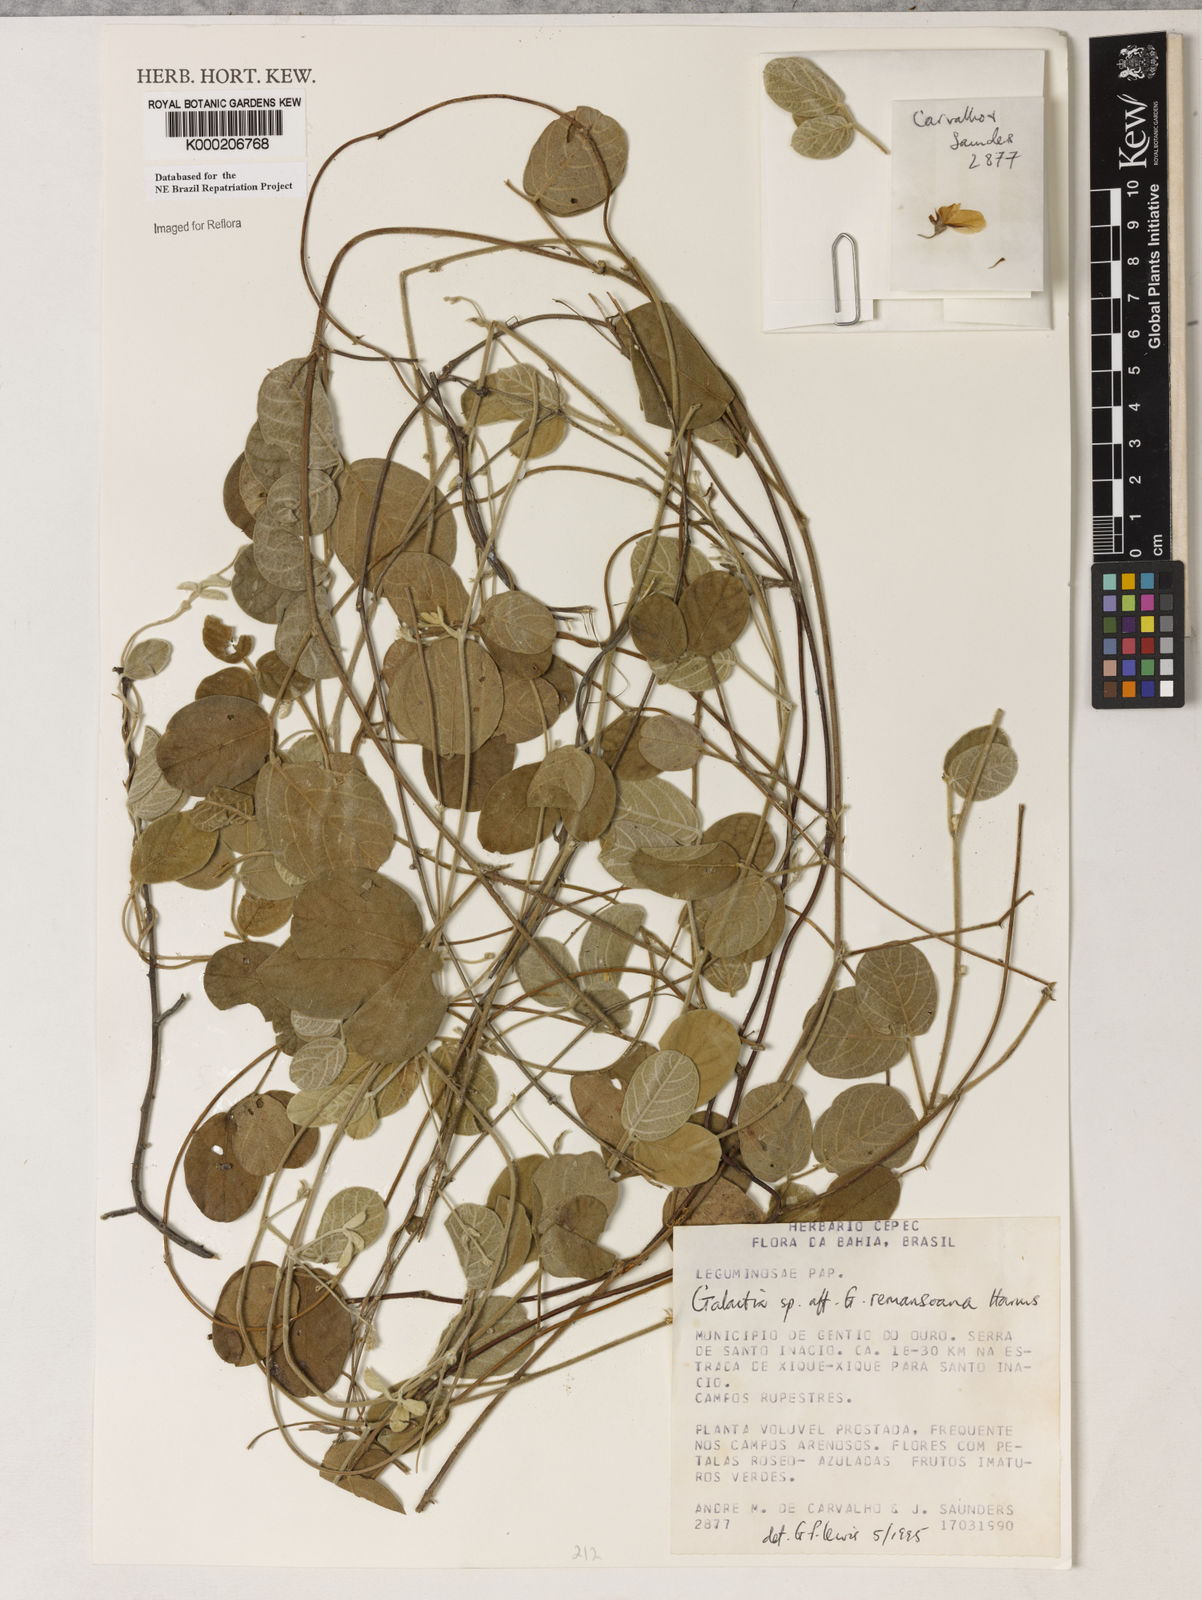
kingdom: Plantae
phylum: Tracheophyta
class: Magnoliopsida
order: Fabales
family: Fabaceae
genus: Galactia
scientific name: Galactia remansoana
